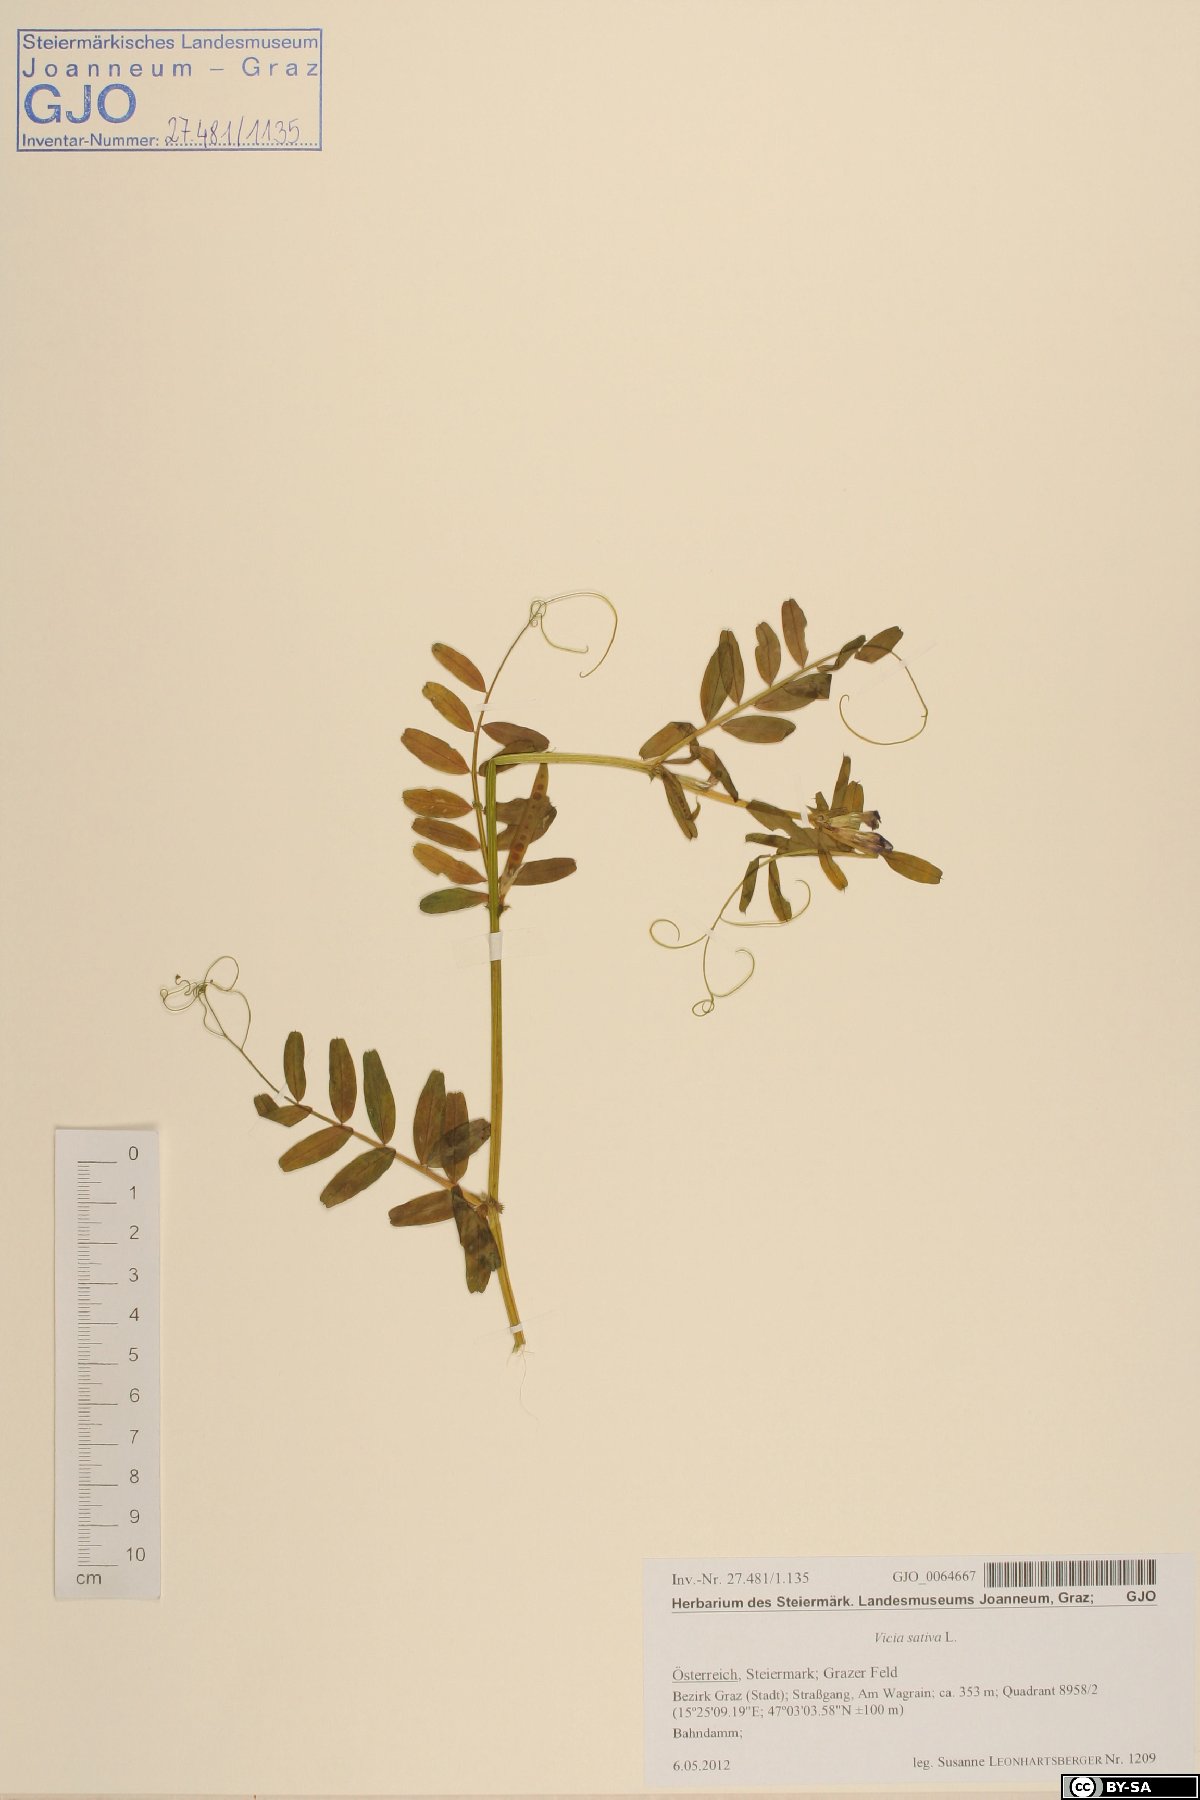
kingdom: Plantae
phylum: Tracheophyta
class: Magnoliopsida
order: Fabales
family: Fabaceae
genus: Vicia
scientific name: Vicia sativa
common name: Garden vetch
